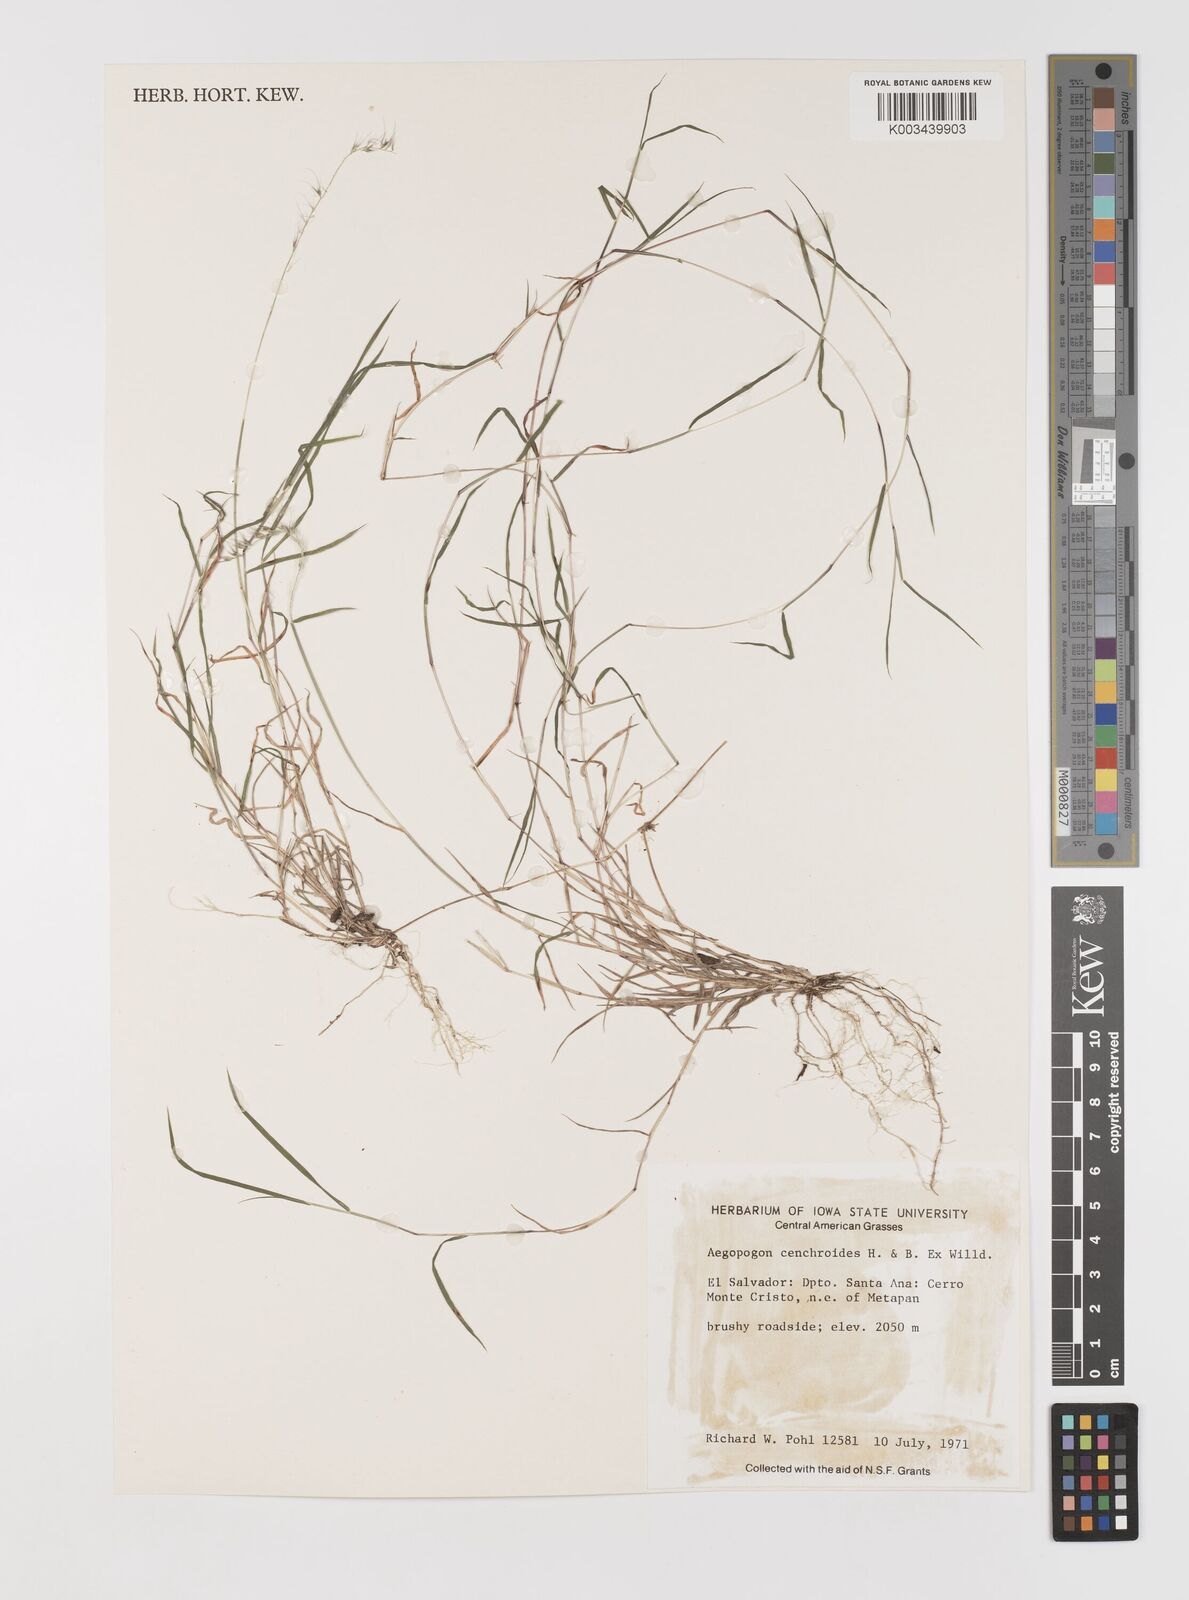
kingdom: Plantae
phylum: Tracheophyta
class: Liliopsida
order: Poales
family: Poaceae
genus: Muhlenbergia
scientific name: Muhlenbergia cenchroides
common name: Relaxgrass
